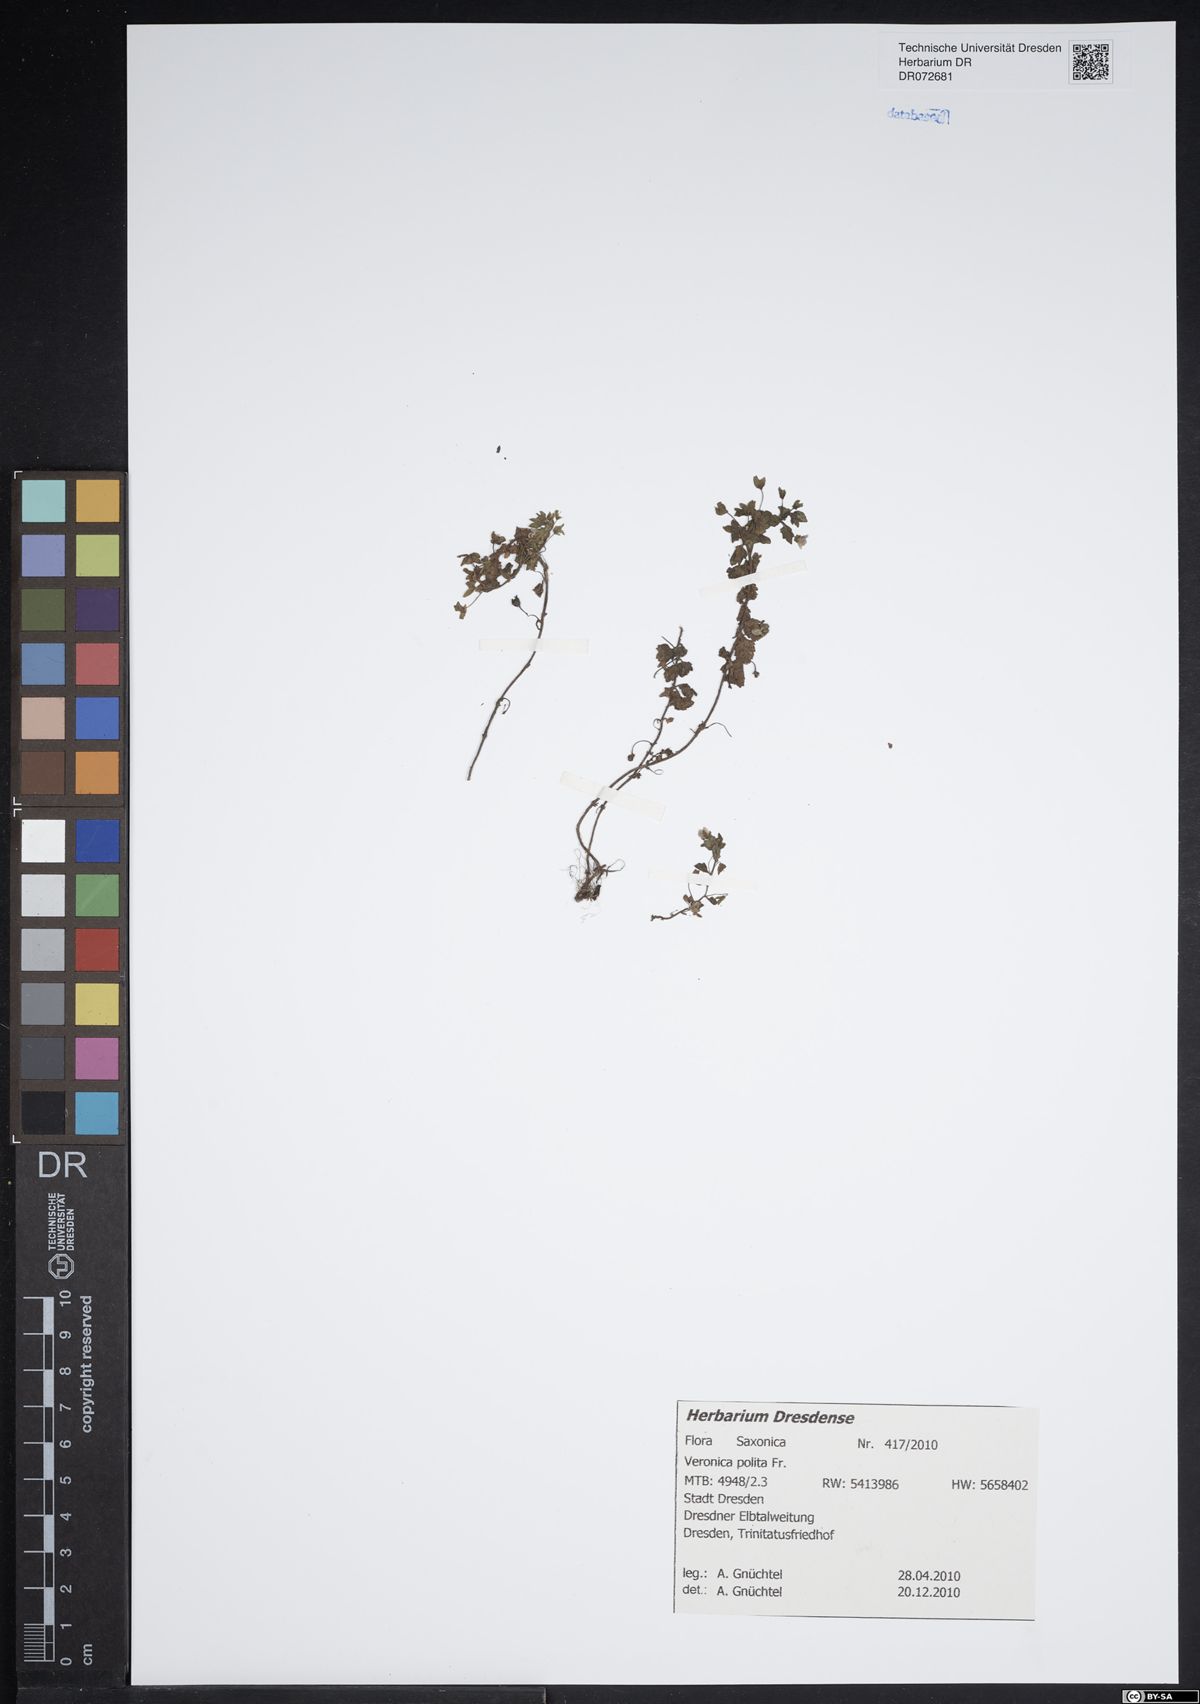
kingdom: Plantae
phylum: Tracheophyta
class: Magnoliopsida
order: Lamiales
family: Plantaginaceae
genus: Veronica
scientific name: Veronica polita
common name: Grey field-speedwell
